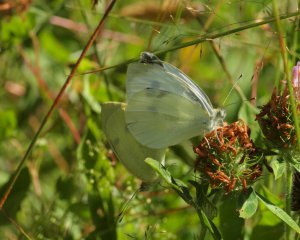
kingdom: Animalia
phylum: Arthropoda
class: Insecta
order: Lepidoptera
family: Pieridae
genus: Pieris
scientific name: Pieris rapae
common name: Cabbage White
